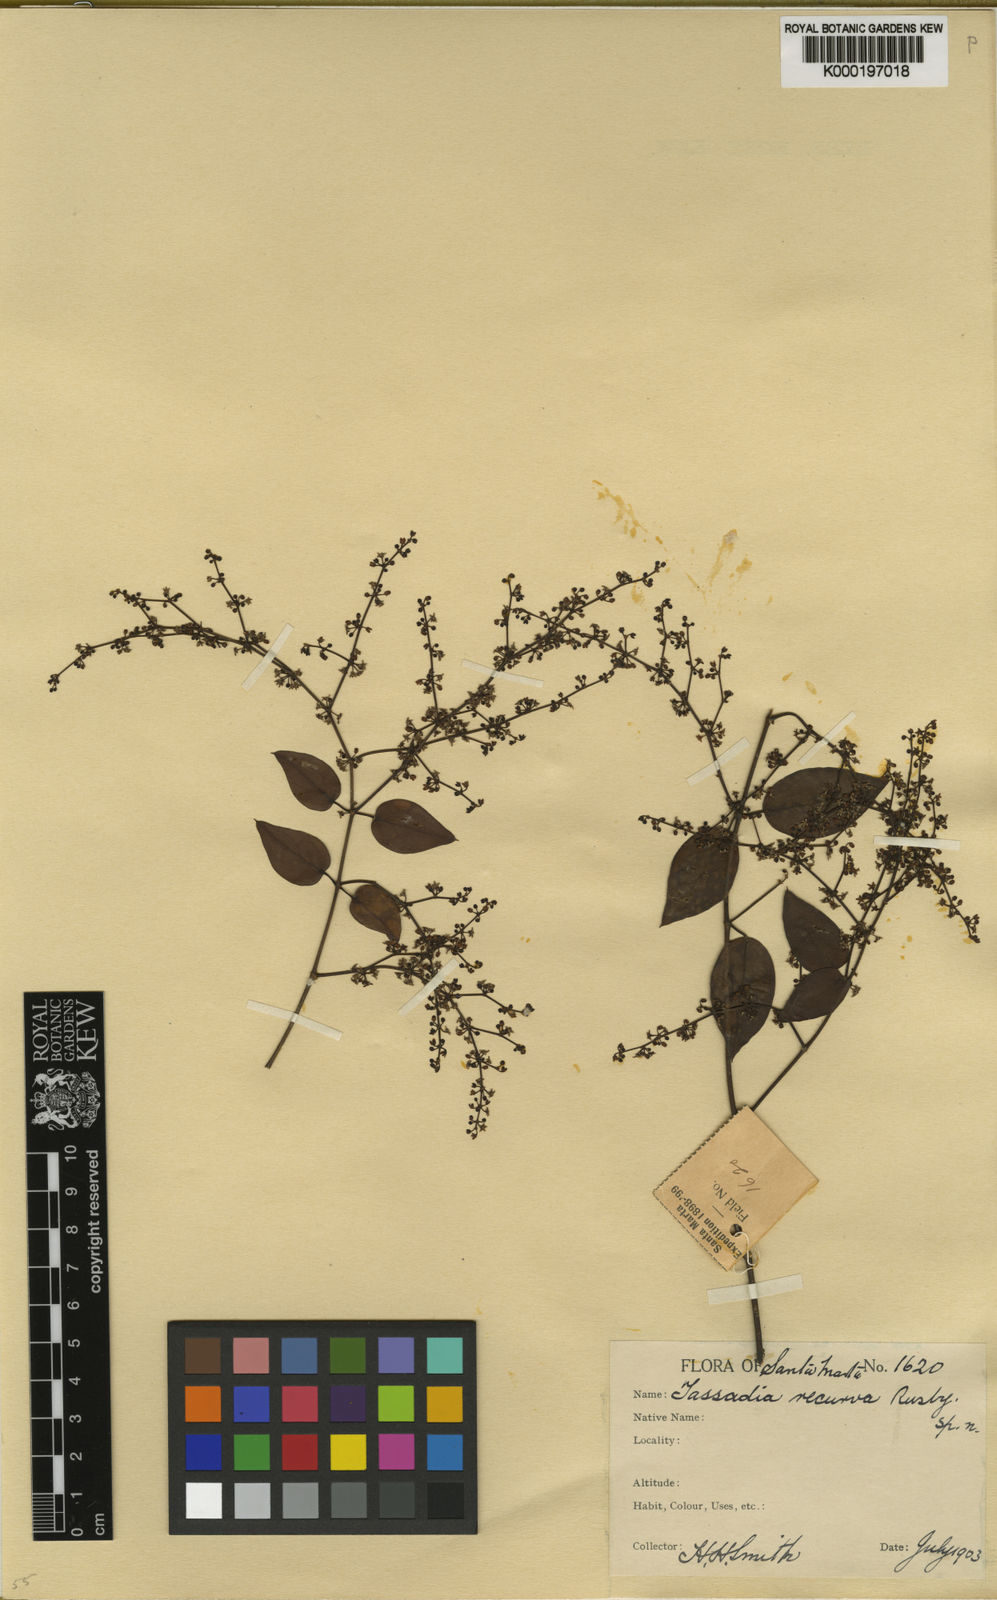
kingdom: Plantae
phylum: Tracheophyta
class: Magnoliopsida
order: Gentianales
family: Apocynaceae
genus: Tassadia
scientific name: Tassadia obovata
